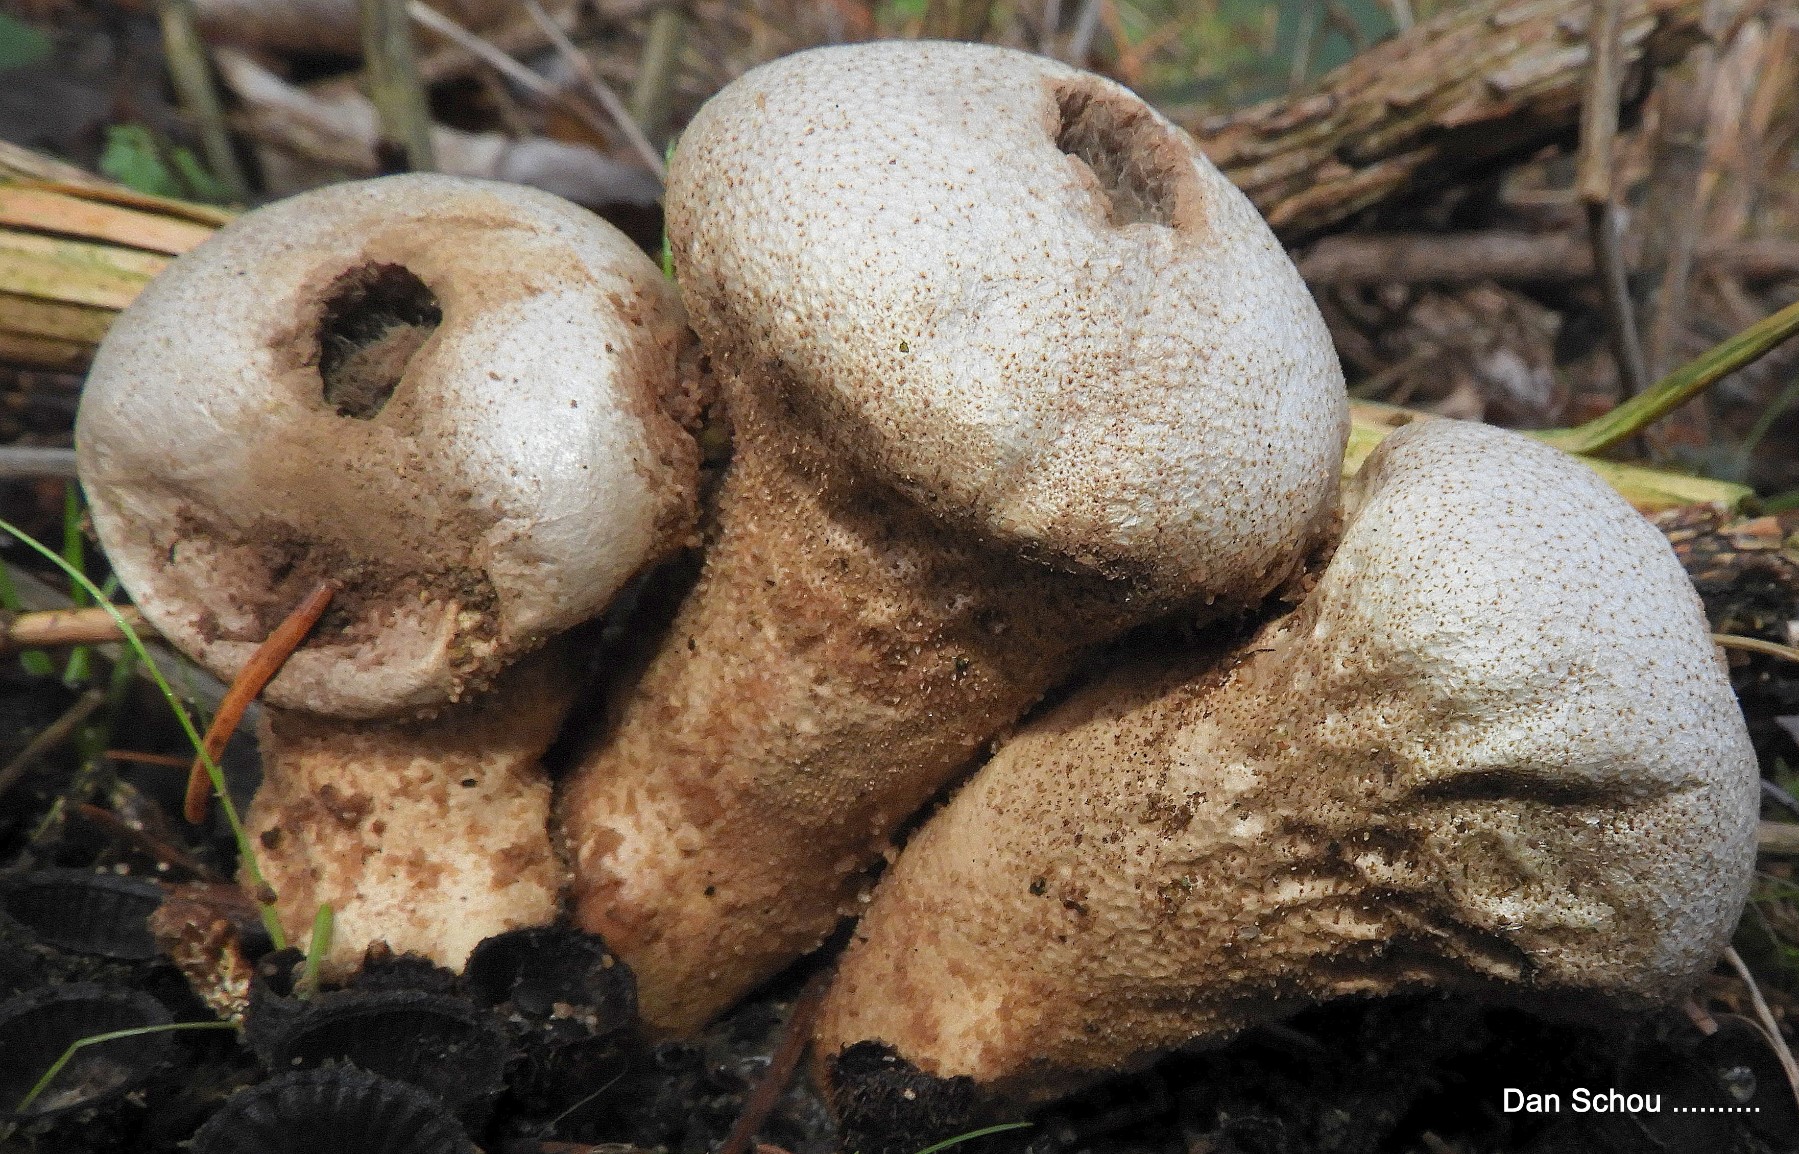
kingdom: Fungi
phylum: Basidiomycota
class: Agaricomycetes
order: Agaricales
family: Lycoperdaceae
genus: Lycoperdon
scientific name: Lycoperdon perlatum
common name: krystal-støvbold
